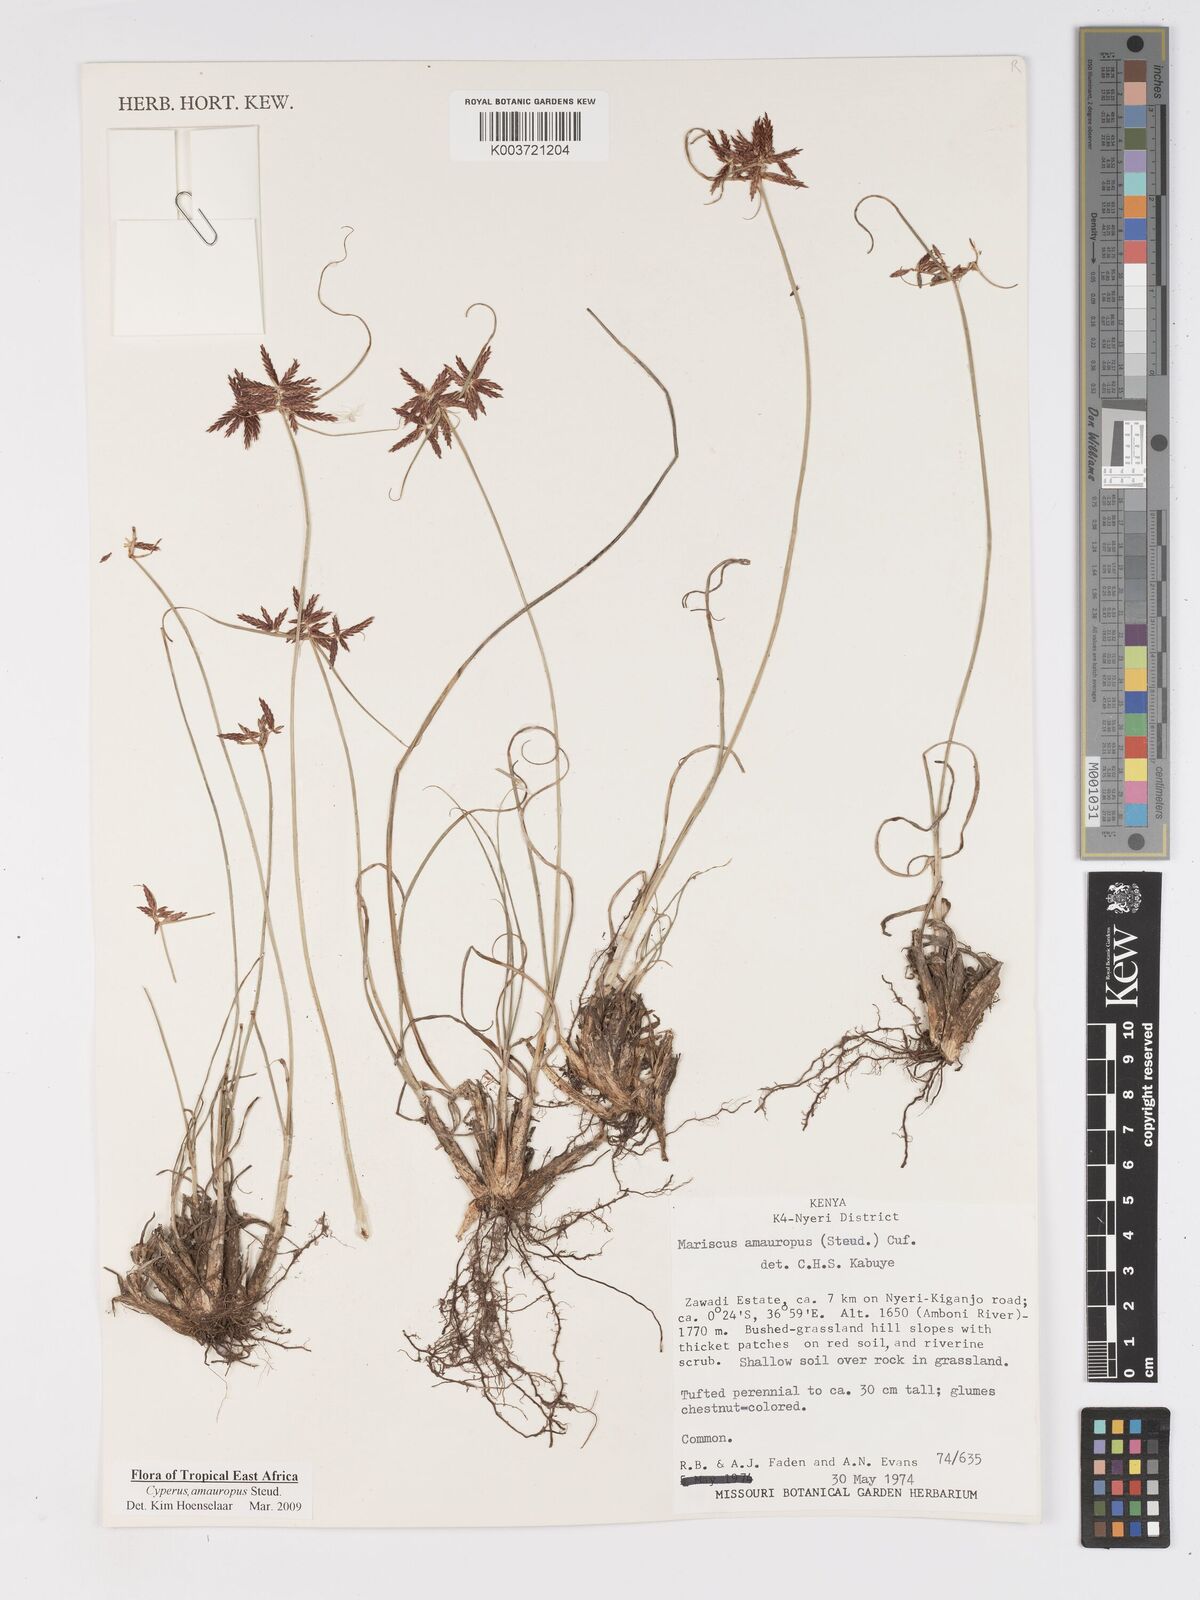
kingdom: Plantae
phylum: Tracheophyta
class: Liliopsida
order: Poales
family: Cyperaceae
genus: Cyperus
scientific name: Cyperus amauropus
